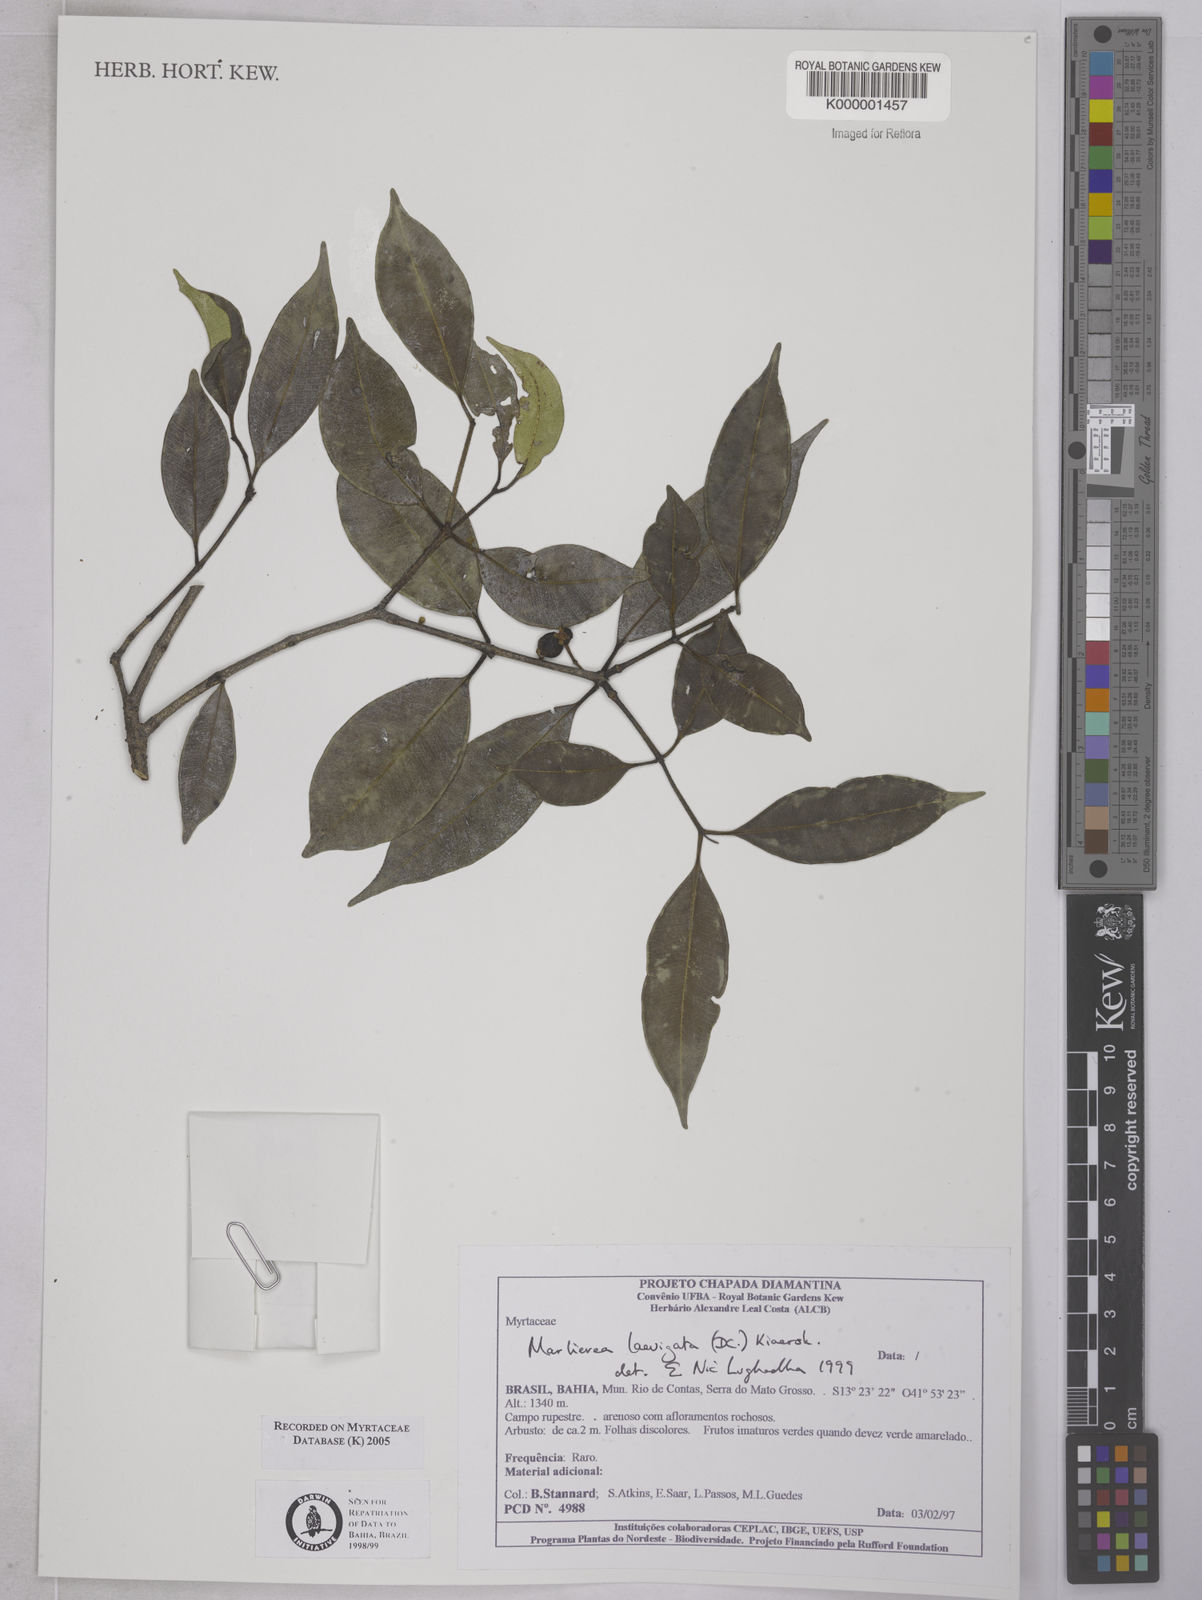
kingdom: Plantae
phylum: Tracheophyta
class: Magnoliopsida
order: Myrtales
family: Myrtaceae
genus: Myrcia
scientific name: Myrcia multipunctata
